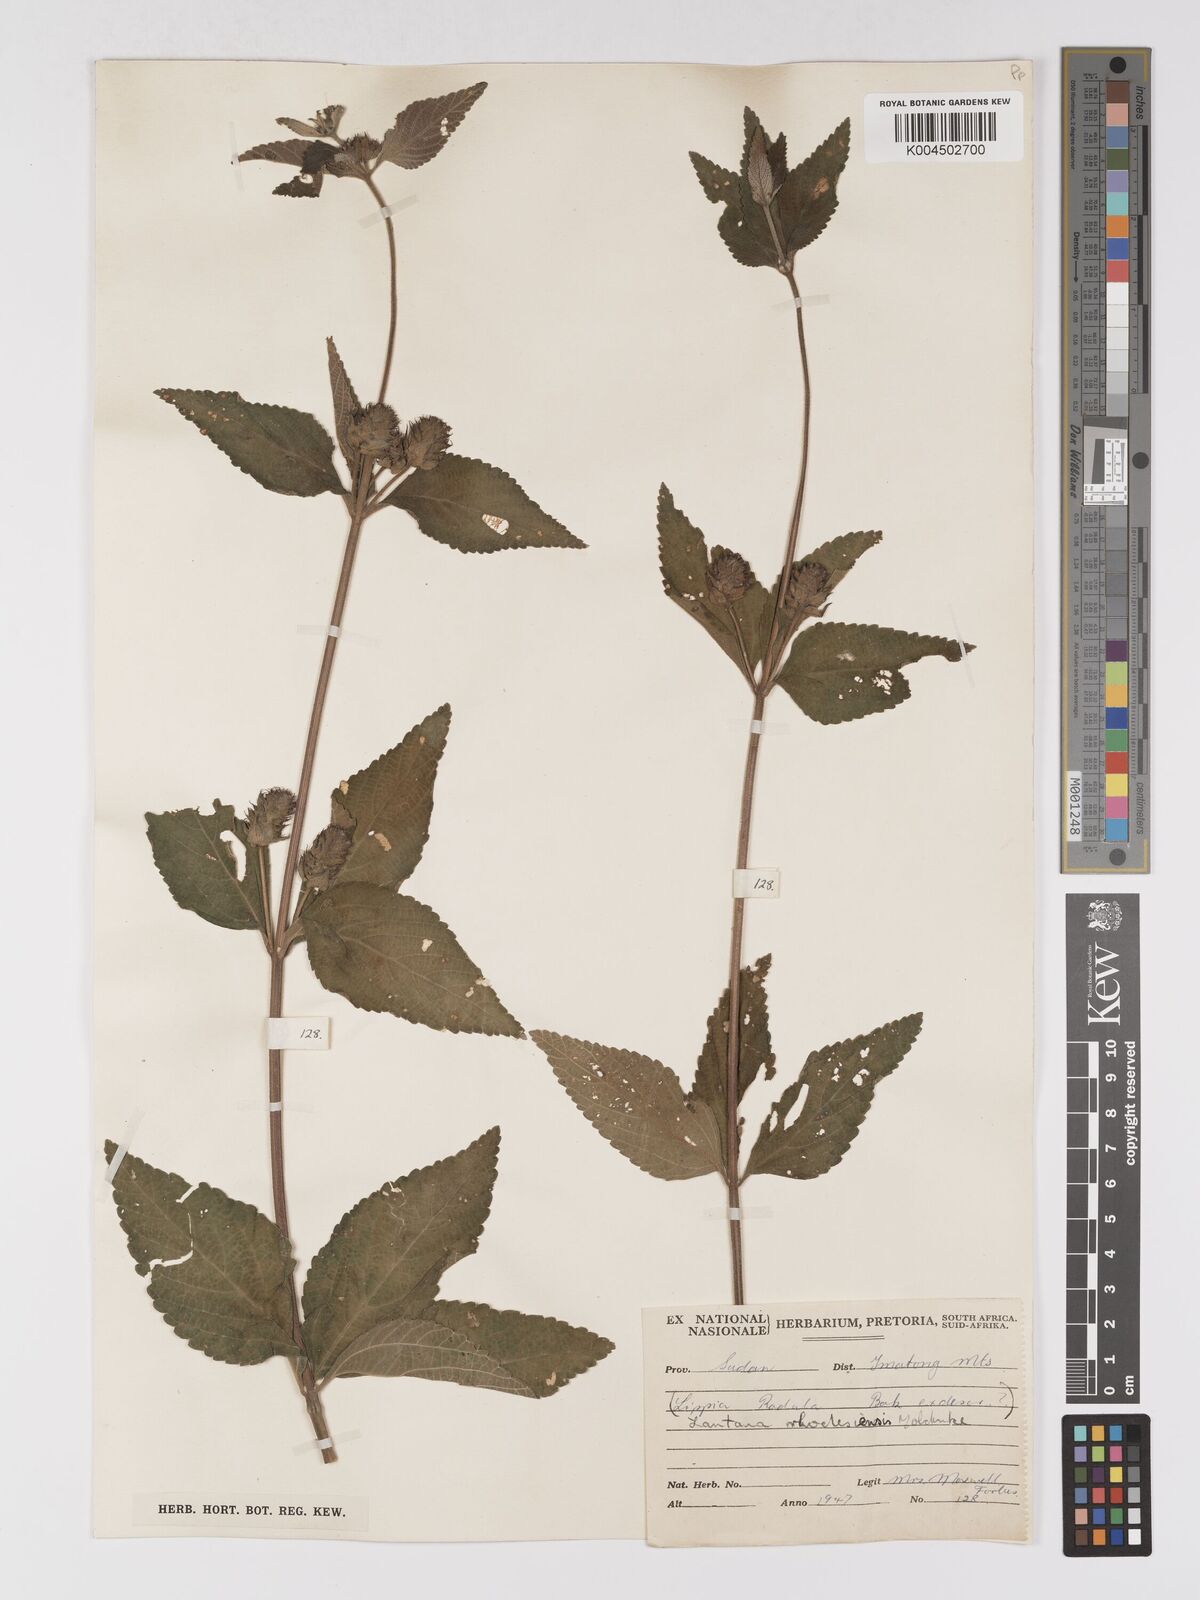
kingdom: Plantae
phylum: Tracheophyta
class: Magnoliopsida
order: Lamiales
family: Verbenaceae
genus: Lantana
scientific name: Lantana ukambensis
